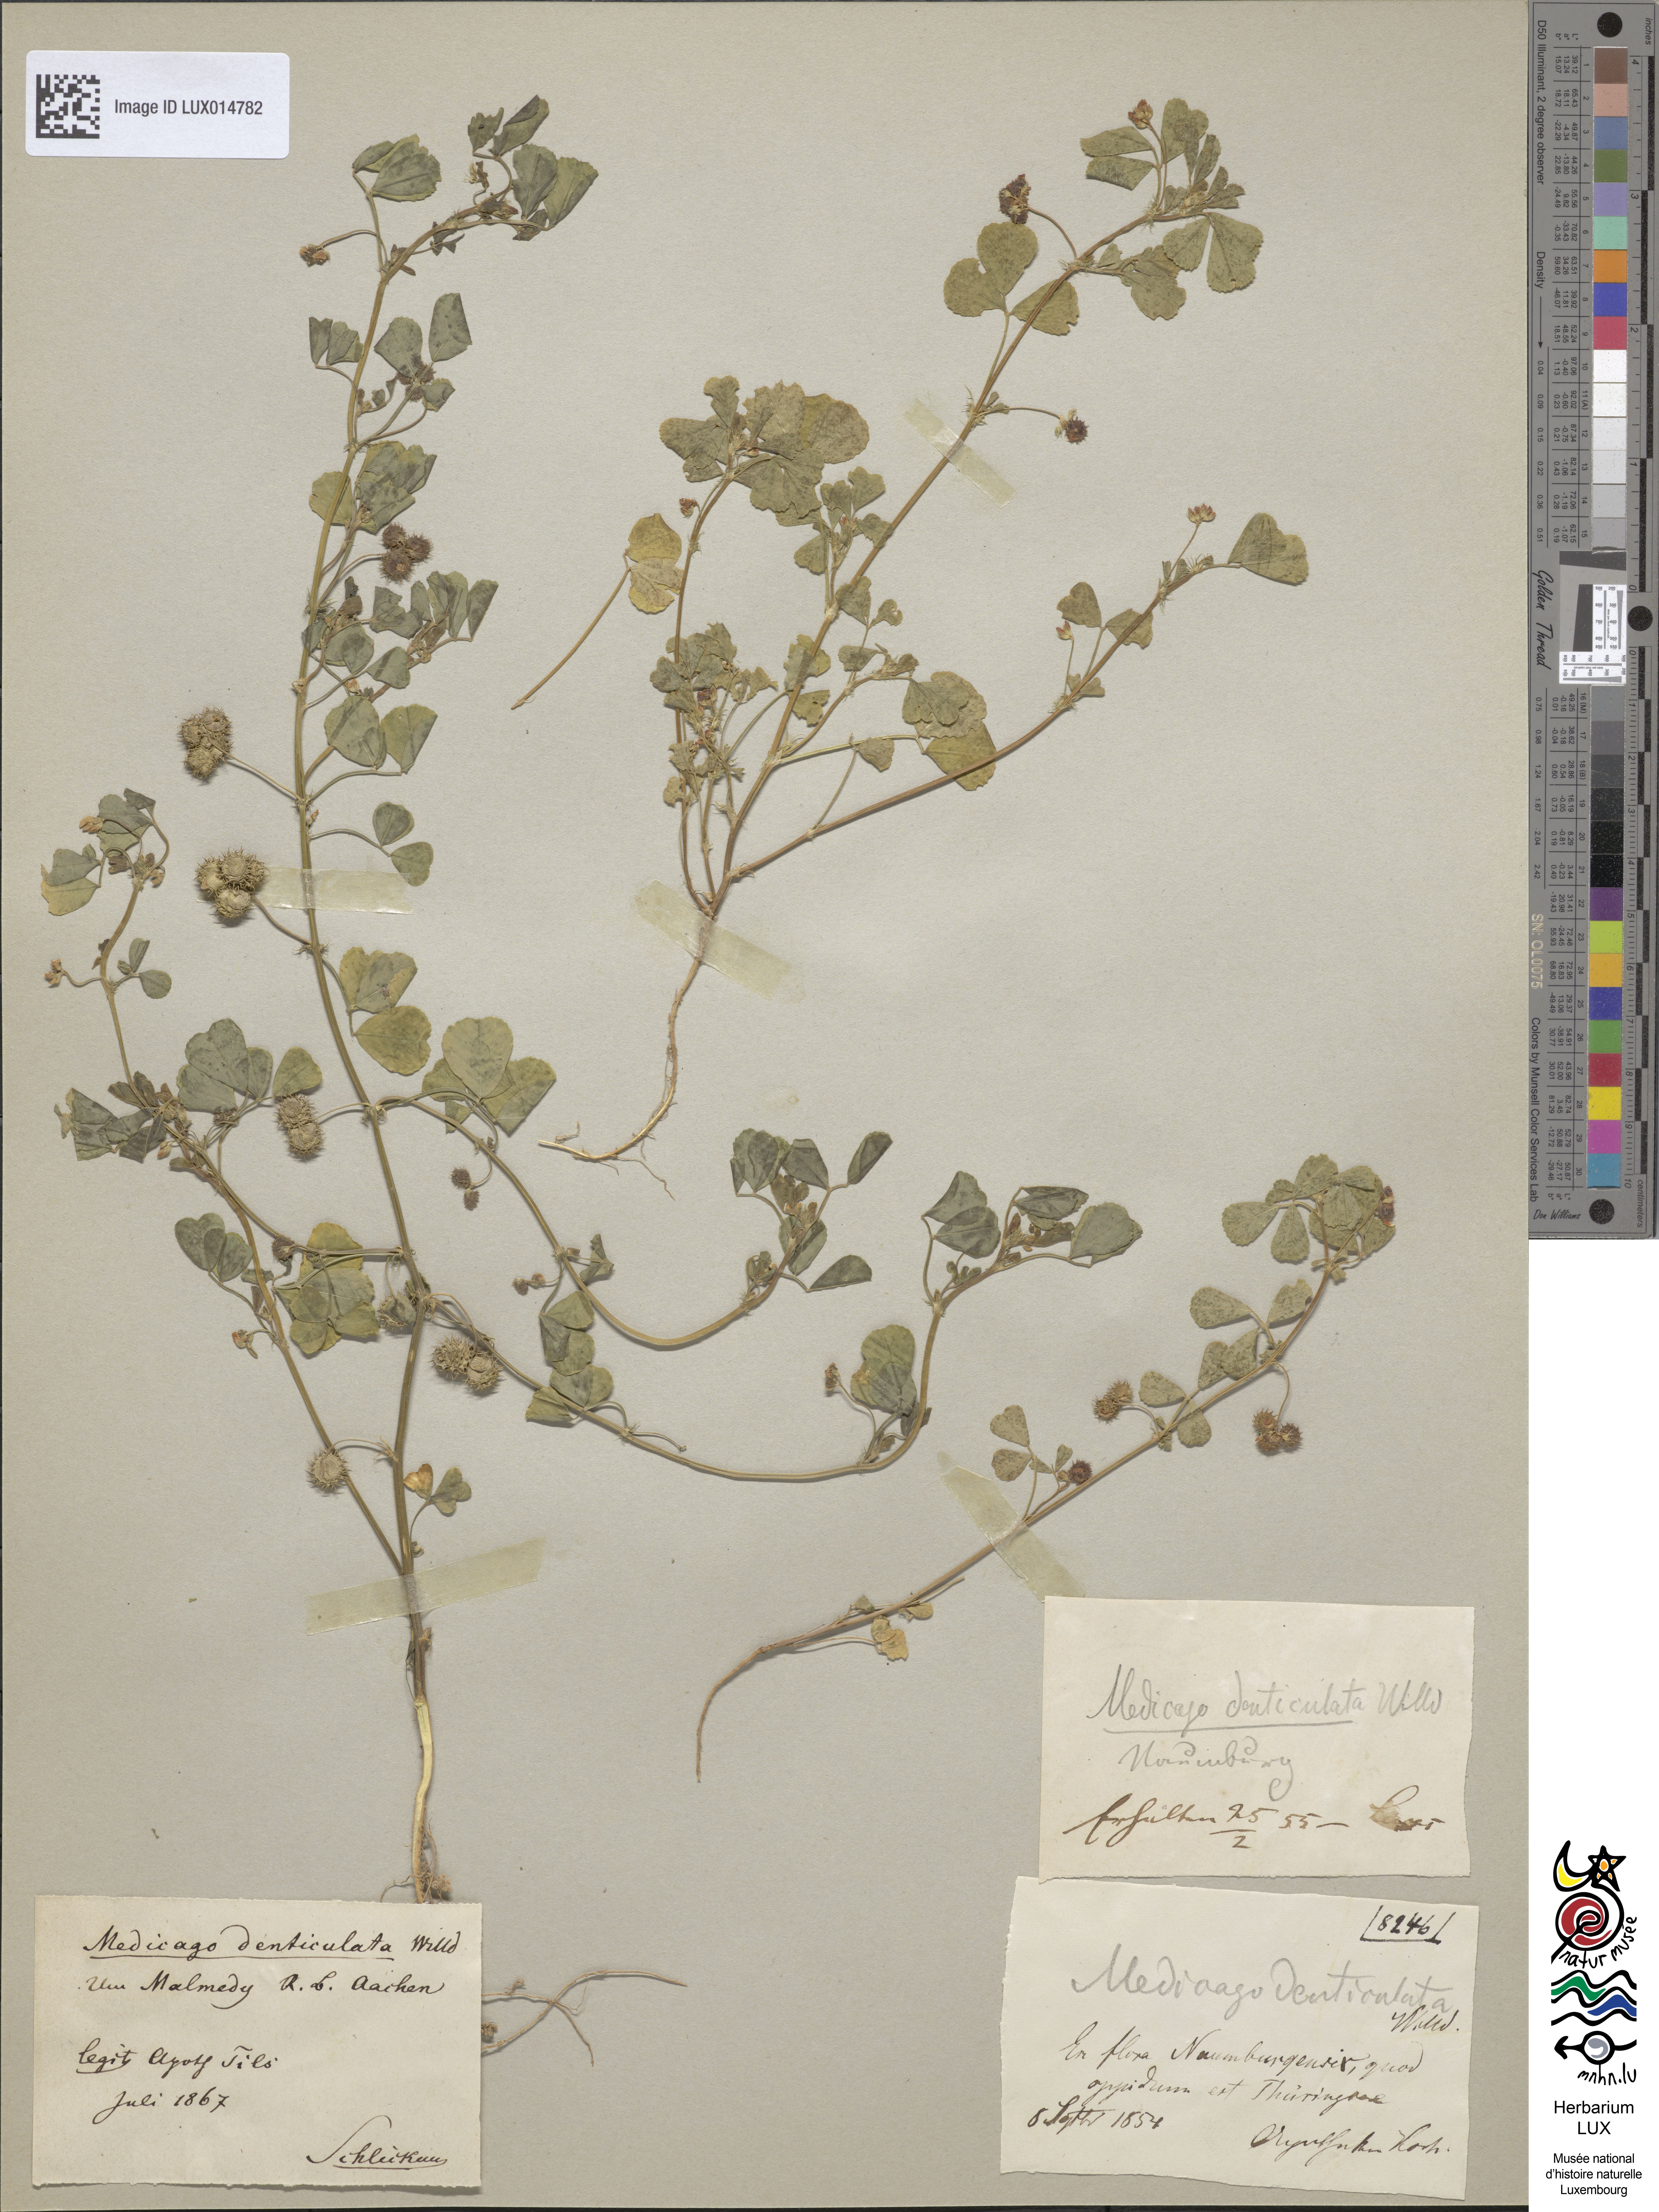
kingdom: Plantae
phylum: Tracheophyta
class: Magnoliopsida
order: Fabales
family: Fabaceae
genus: Medicago
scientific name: Medicago polymorpha
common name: Burclover
